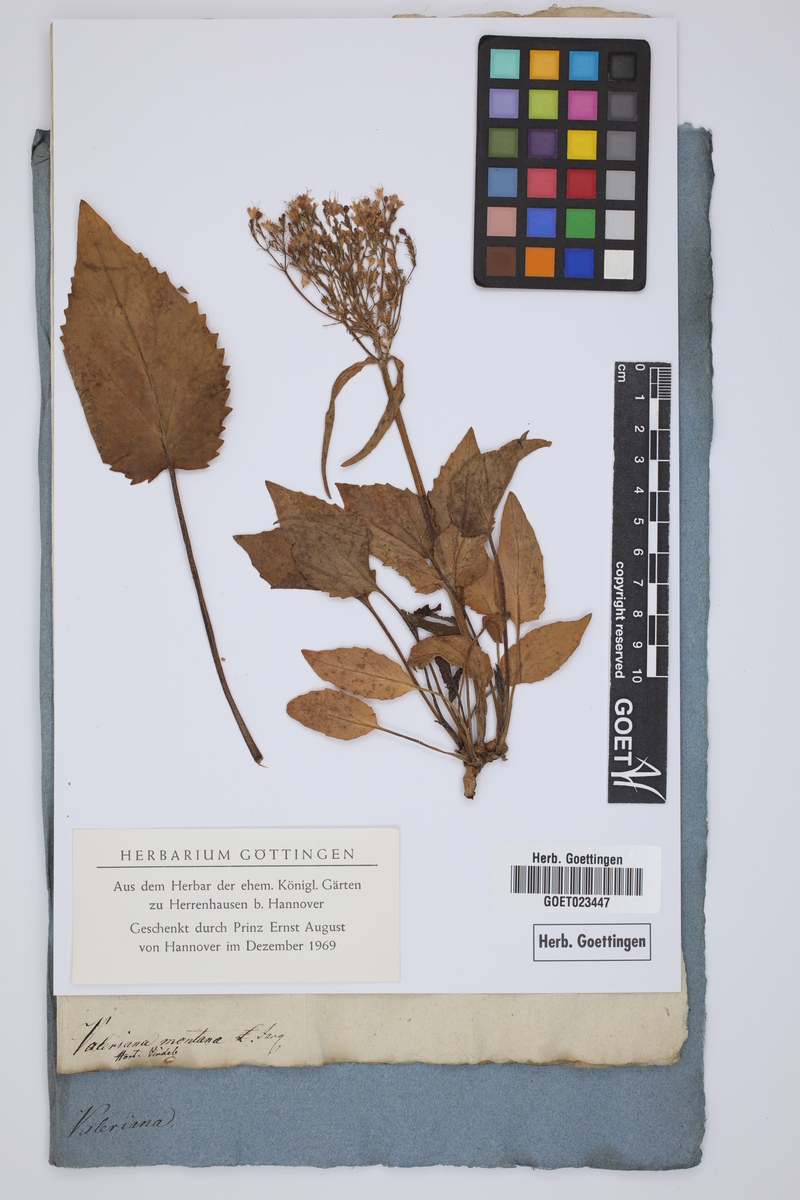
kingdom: Plantae
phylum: Tracheophyta
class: Magnoliopsida
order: Dipsacales
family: Caprifoliaceae
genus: Valeriana
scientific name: Valeriana montana
